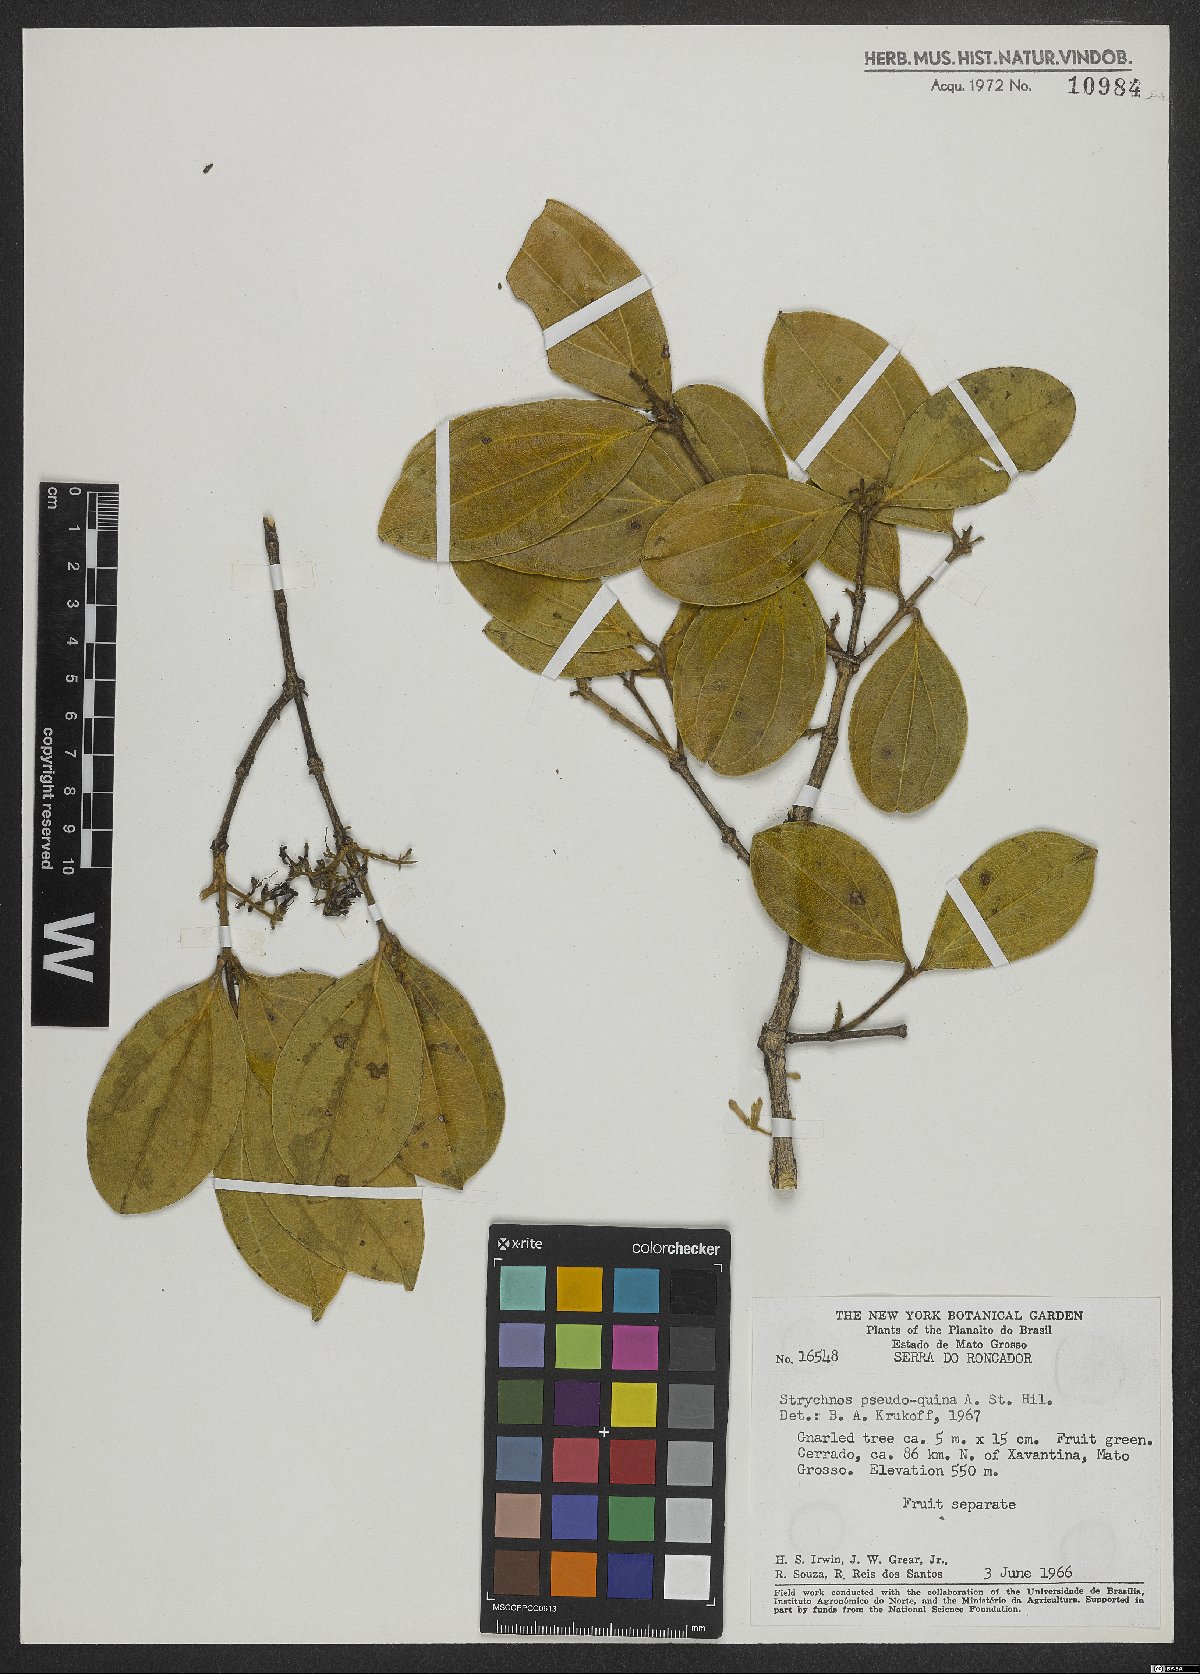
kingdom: Plantae
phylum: Tracheophyta
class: Magnoliopsida
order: Gentianales
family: Loganiaceae
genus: Strychnos
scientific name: Strychnos pseudoquina
